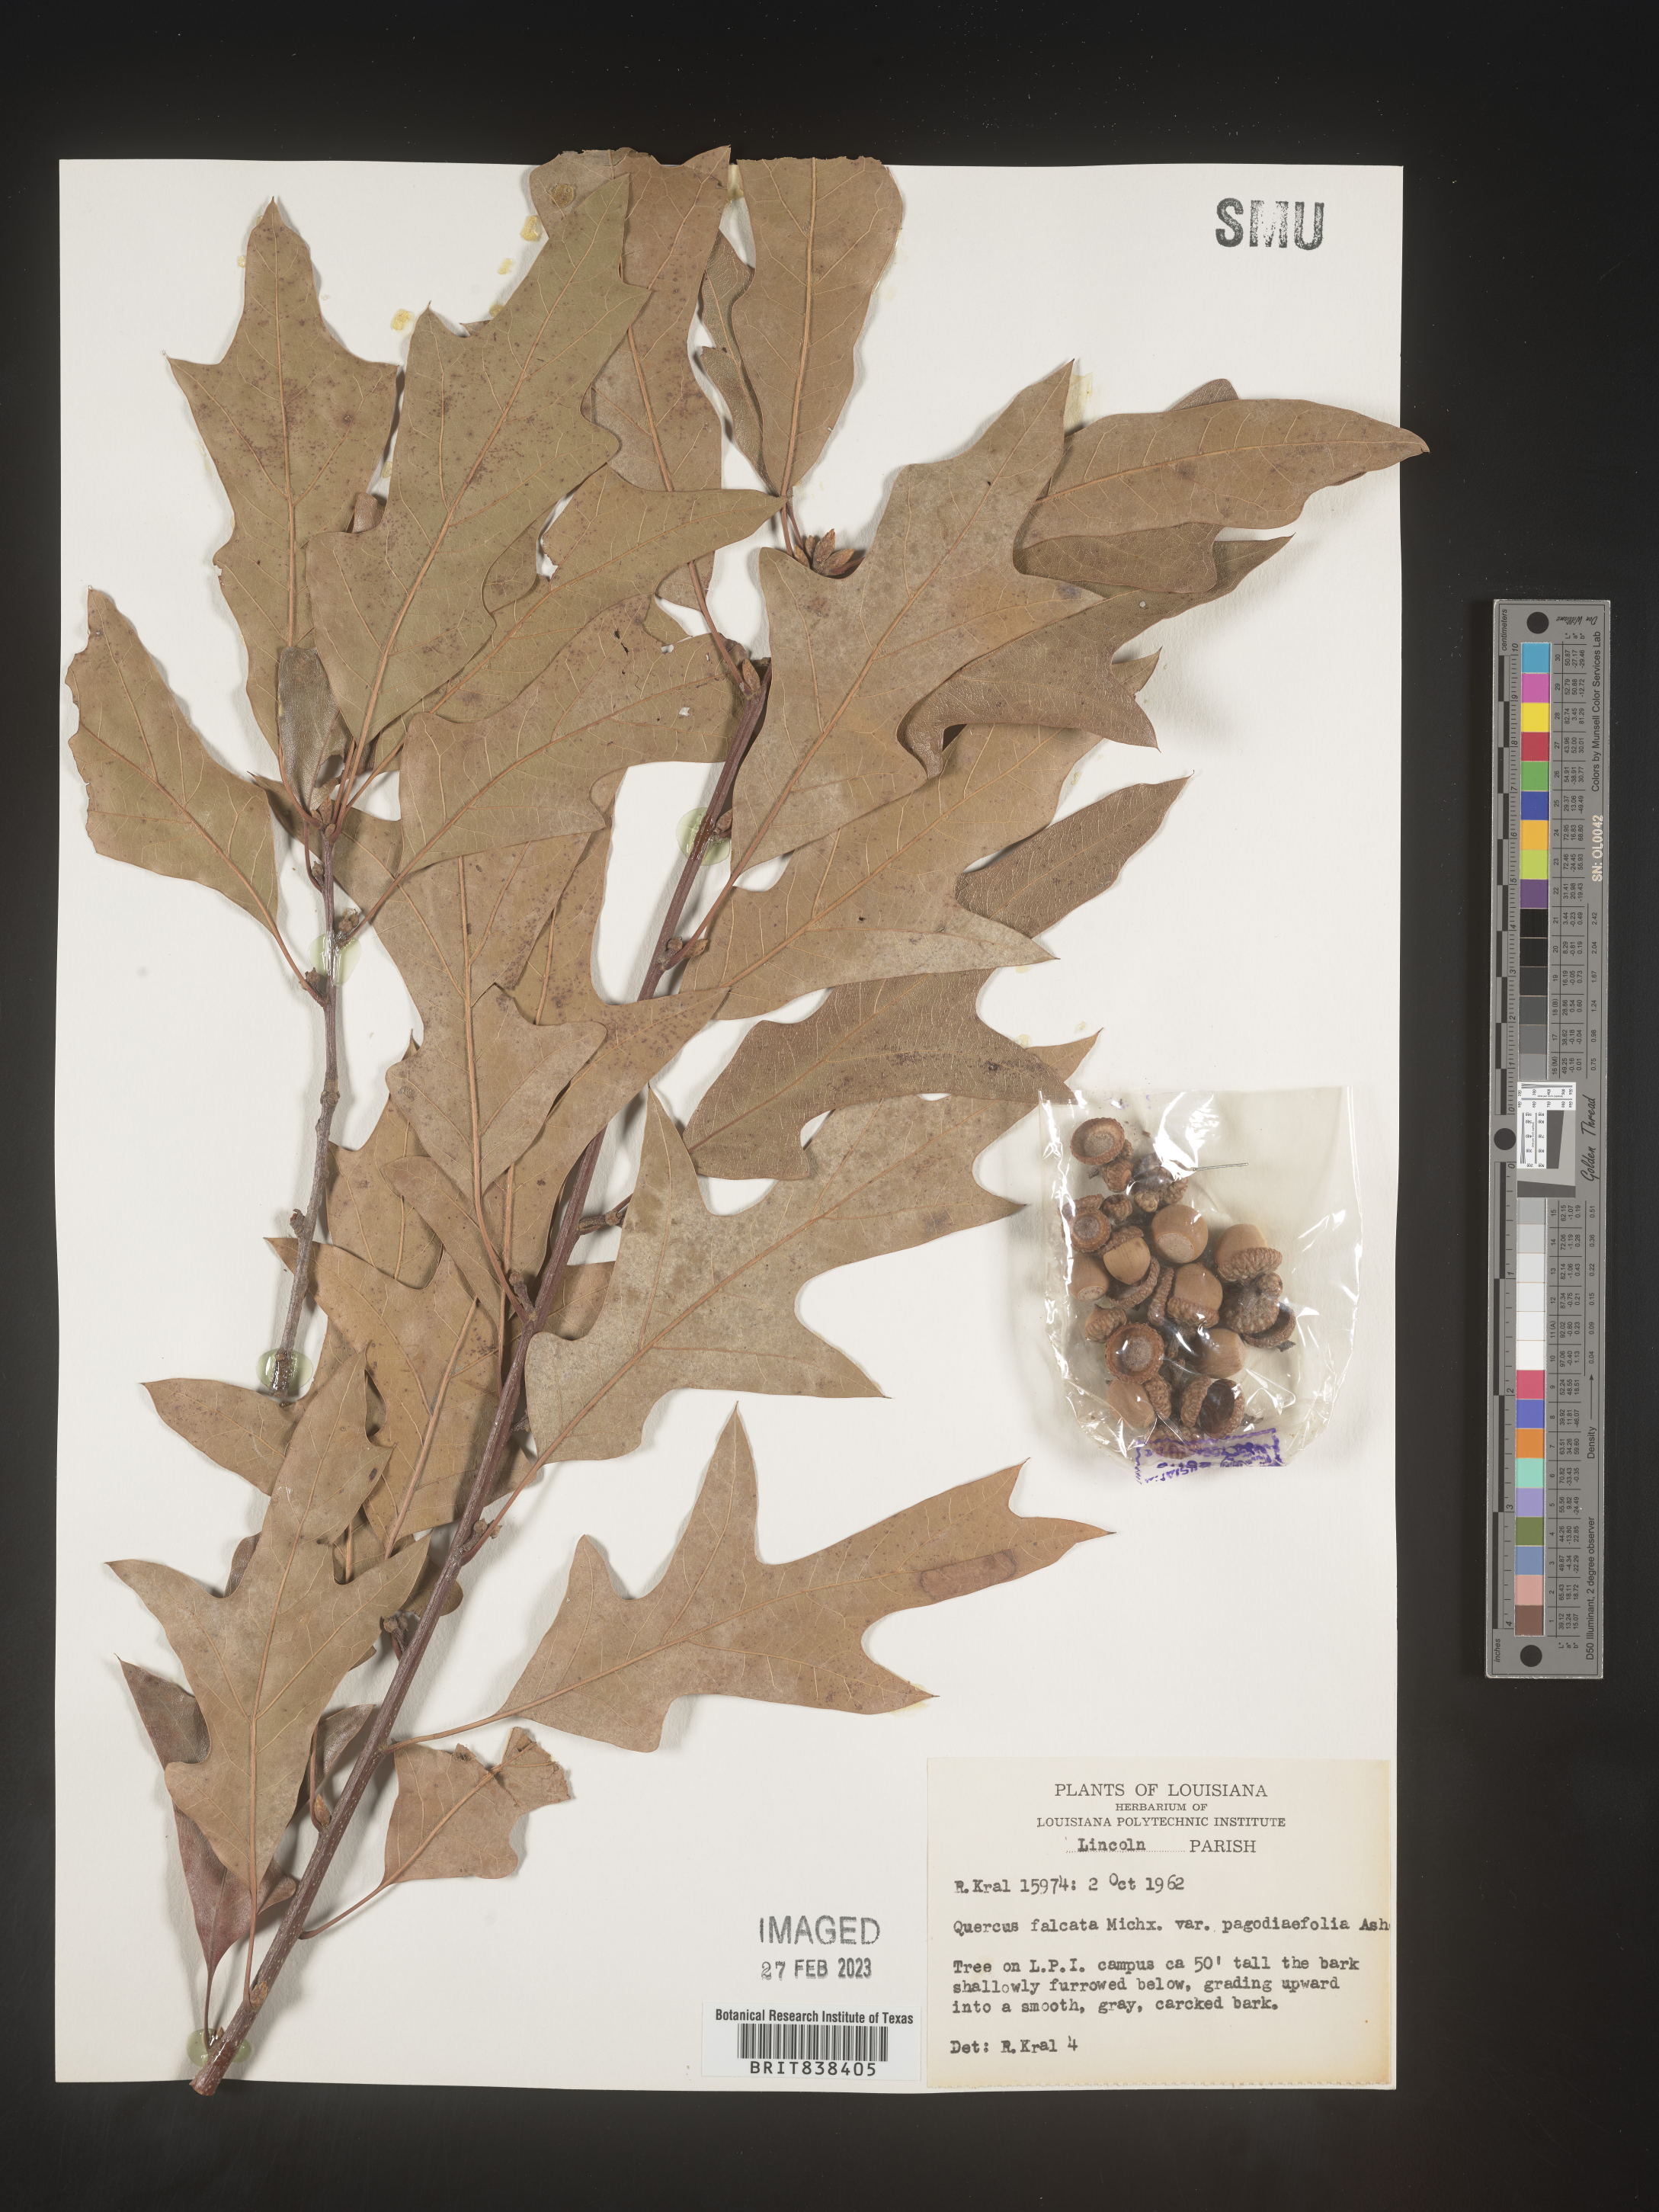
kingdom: Plantae
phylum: Tracheophyta
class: Magnoliopsida
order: Fagales
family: Fagaceae
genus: Quercus
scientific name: Quercus falcata
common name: Southern red oak
